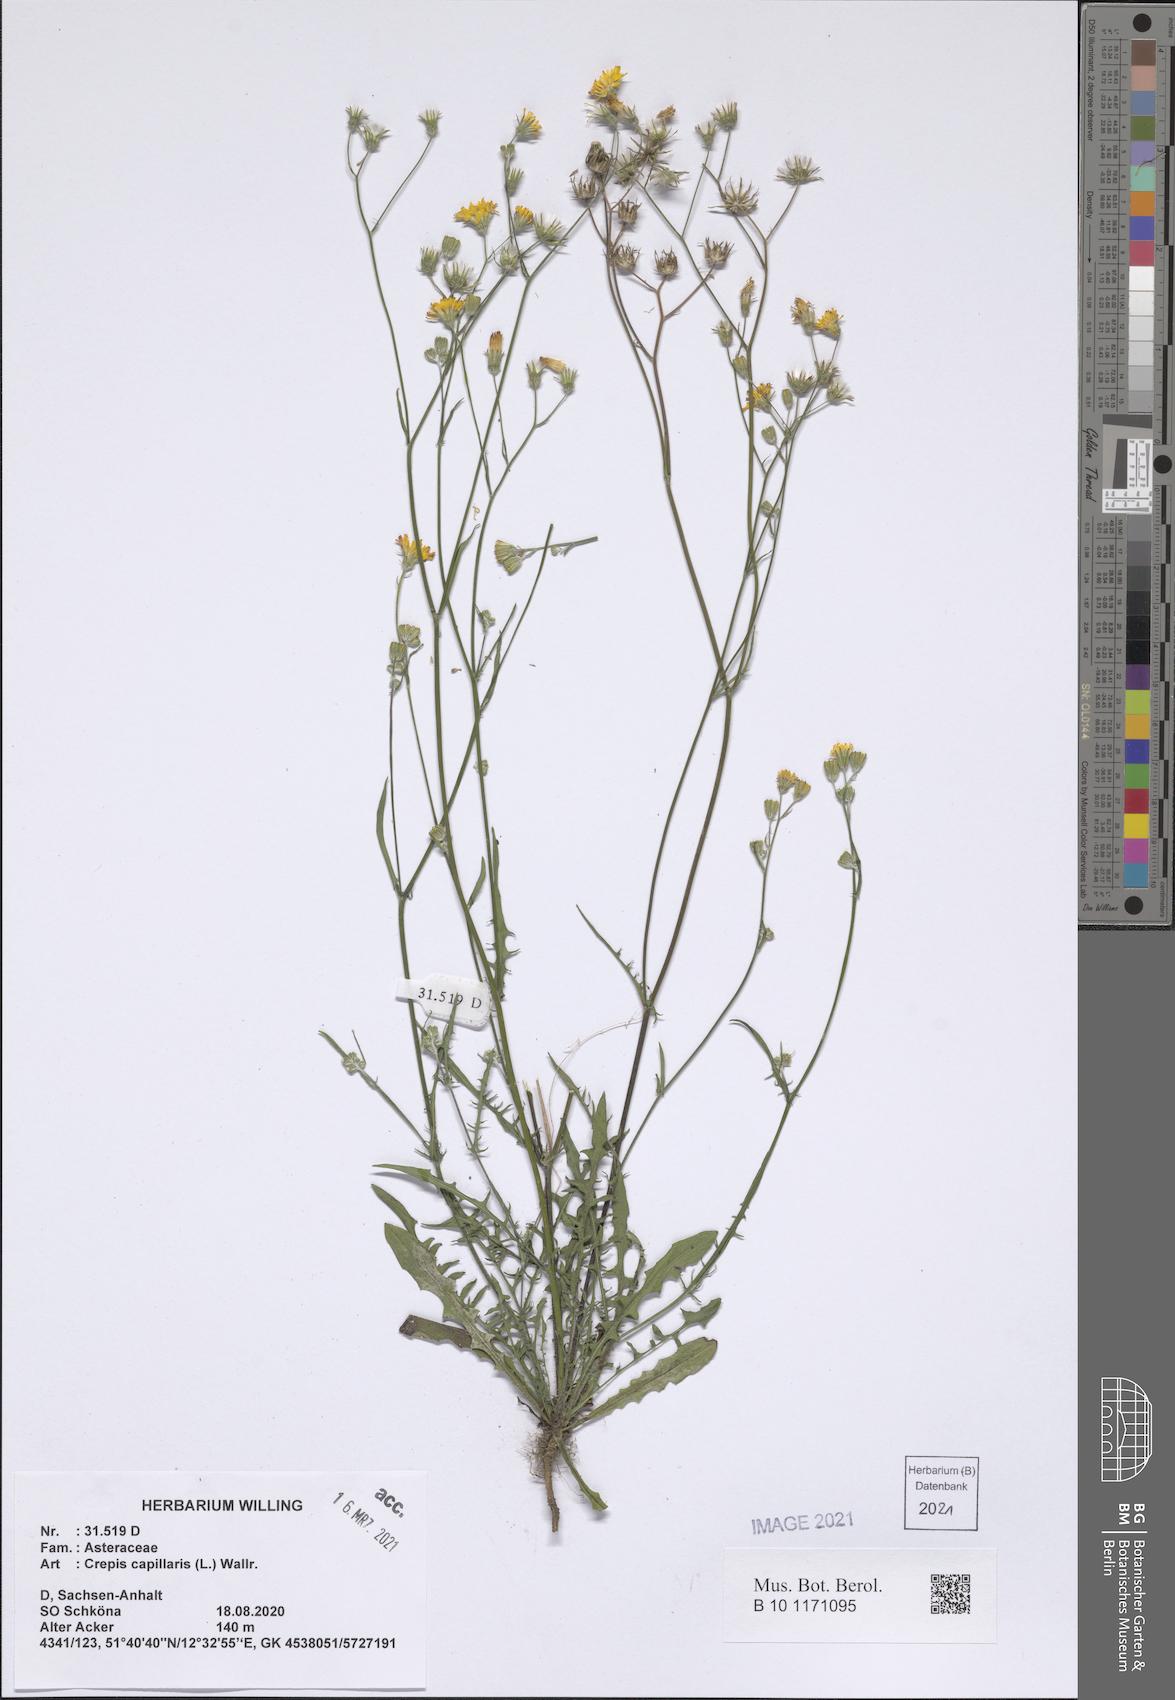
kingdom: Plantae
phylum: Tracheophyta
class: Magnoliopsida
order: Asterales
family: Asteraceae
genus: Crepis
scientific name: Crepis capillaris
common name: Smooth hawksbeard
